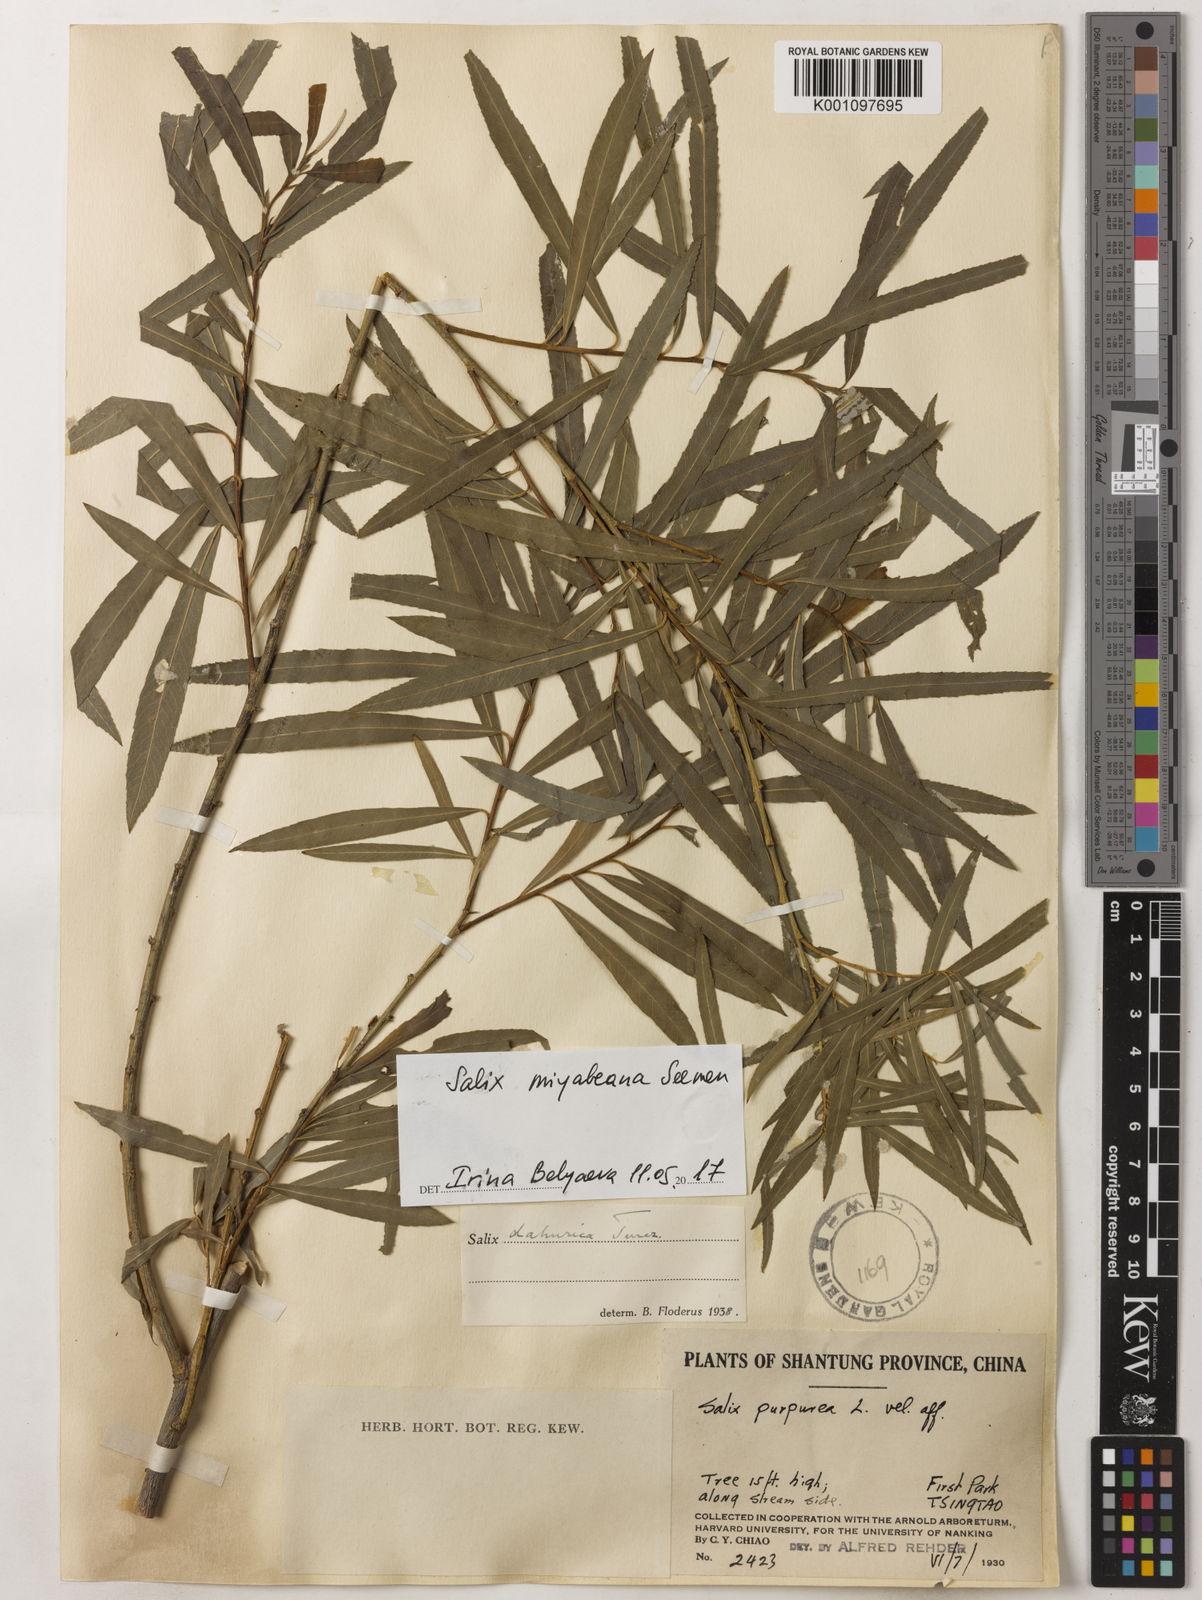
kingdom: Plantae
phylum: Tracheophyta
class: Magnoliopsida
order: Malpighiales
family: Salicaceae
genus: Salix
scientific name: Salix miyabeana
